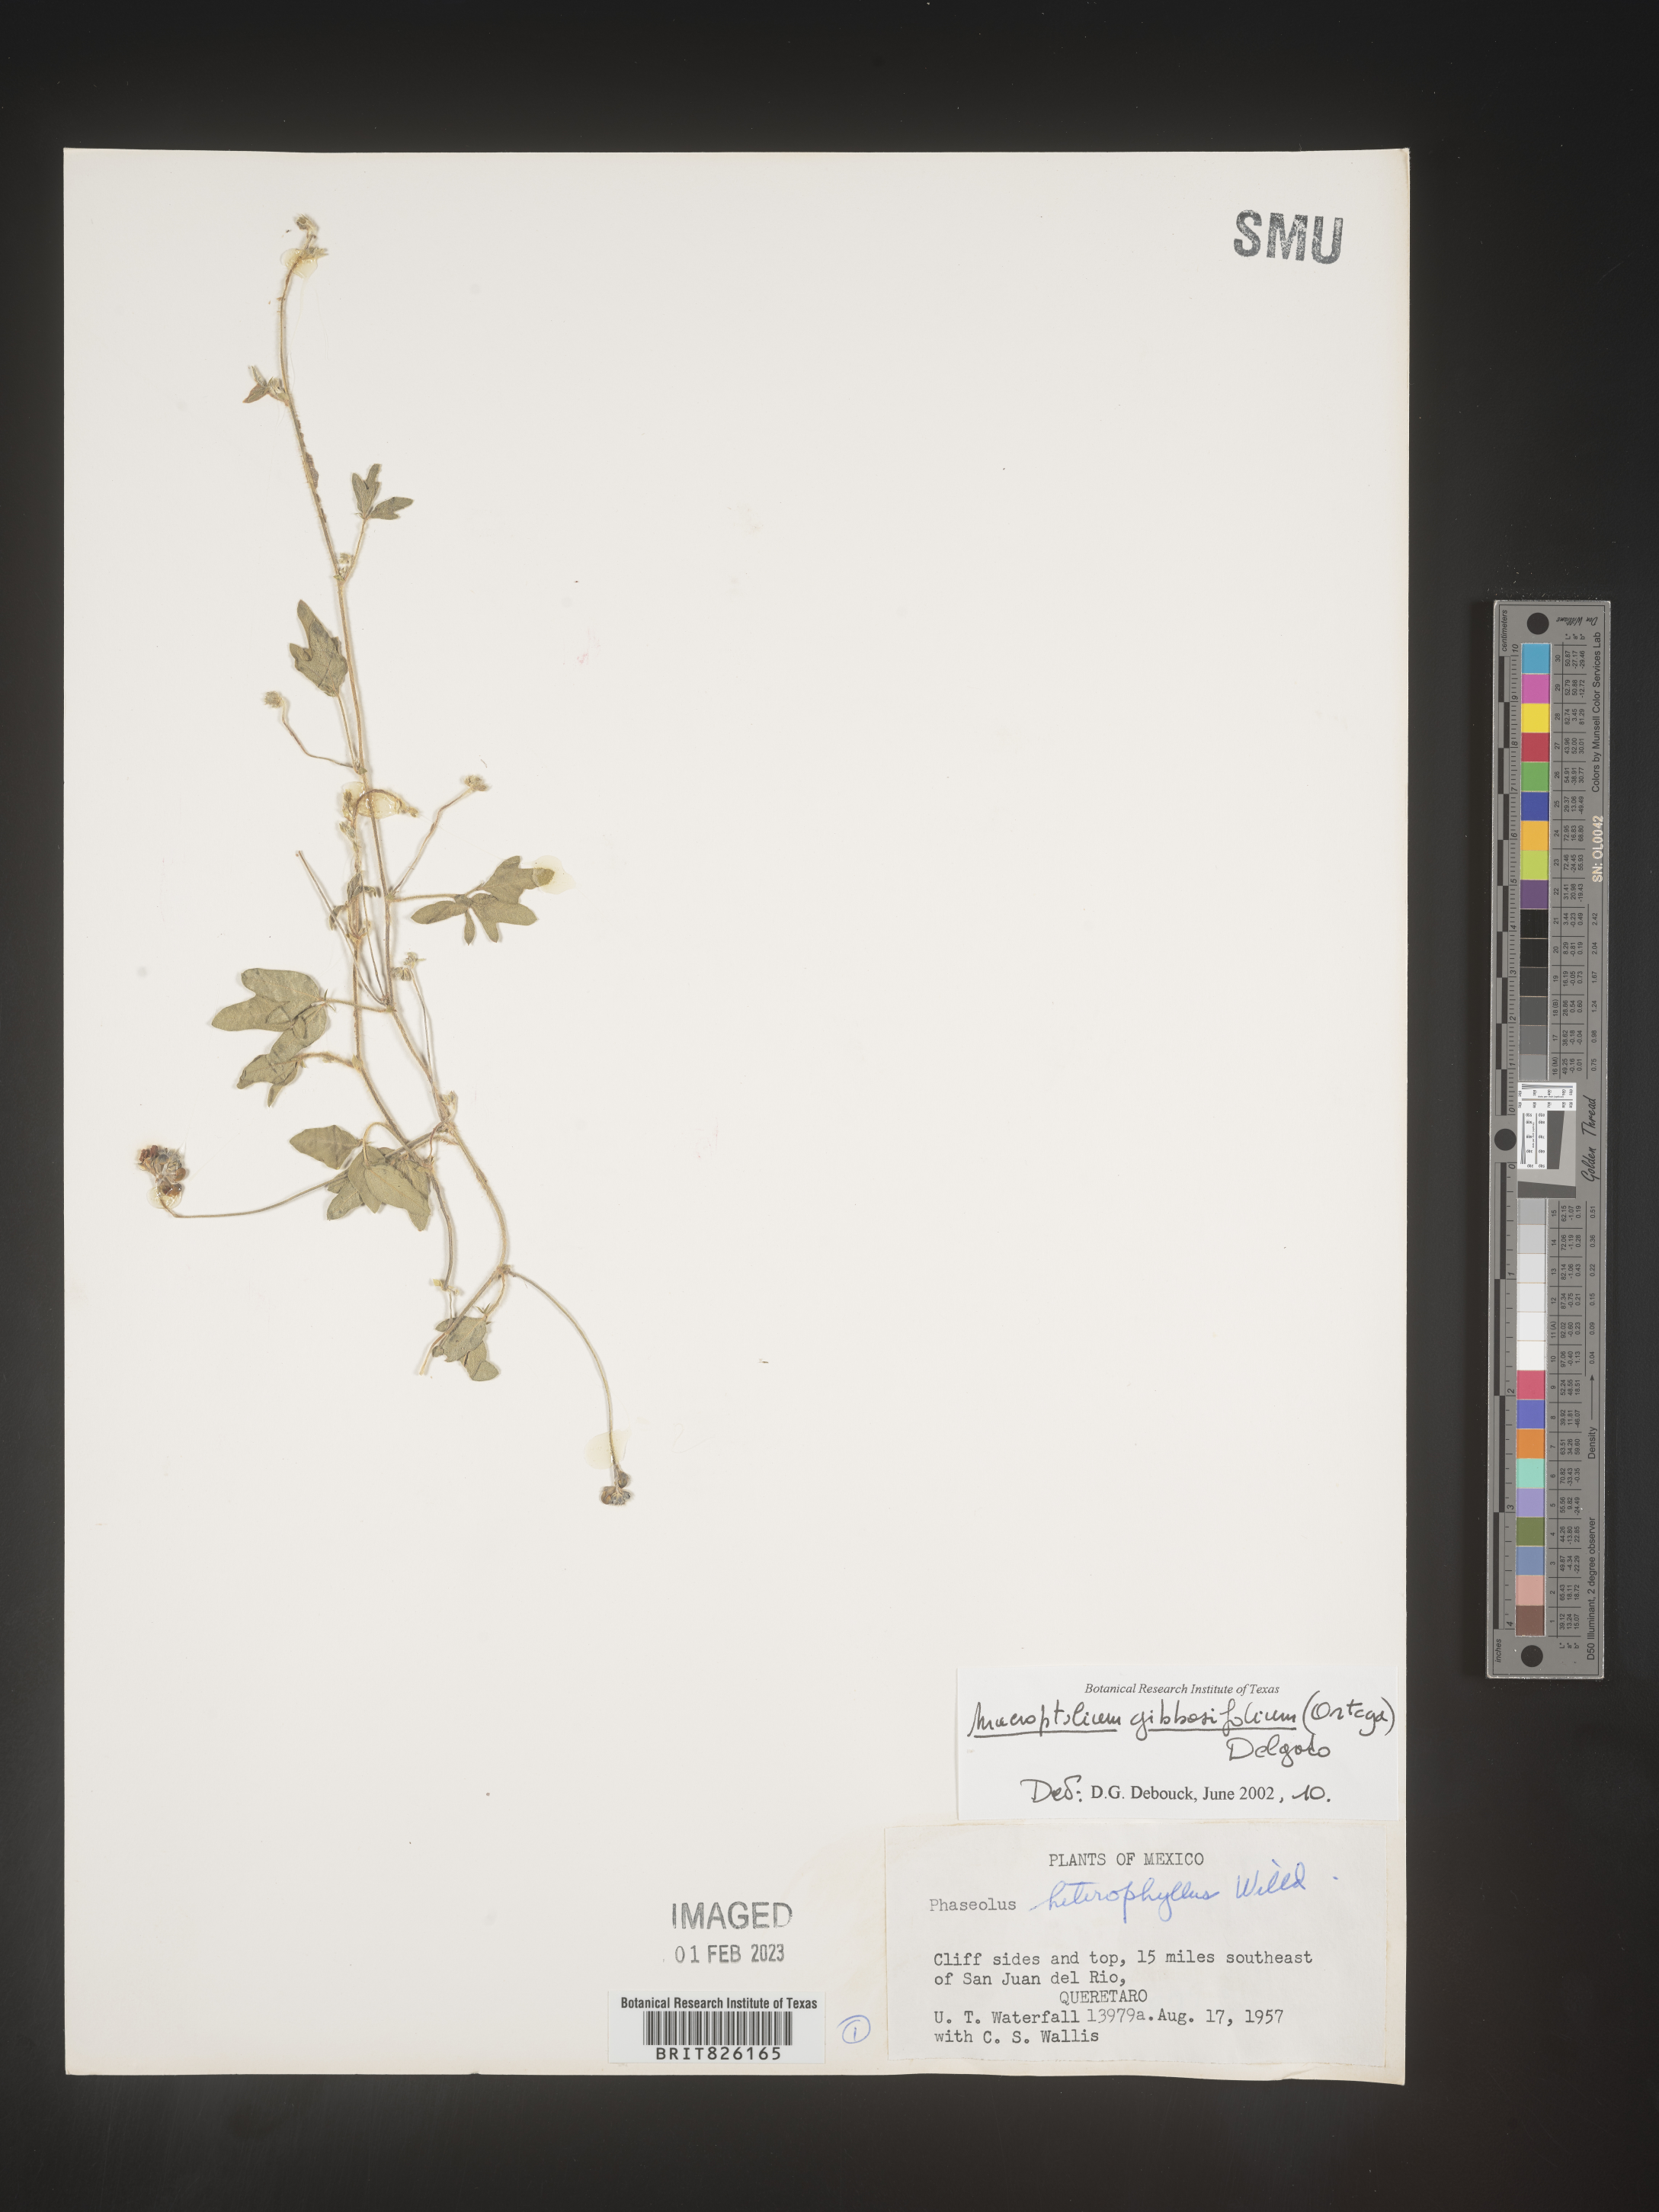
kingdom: Plantae
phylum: Tracheophyta
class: Magnoliopsida
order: Fabales
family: Fabaceae
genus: Macroptilium
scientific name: Macroptilium
